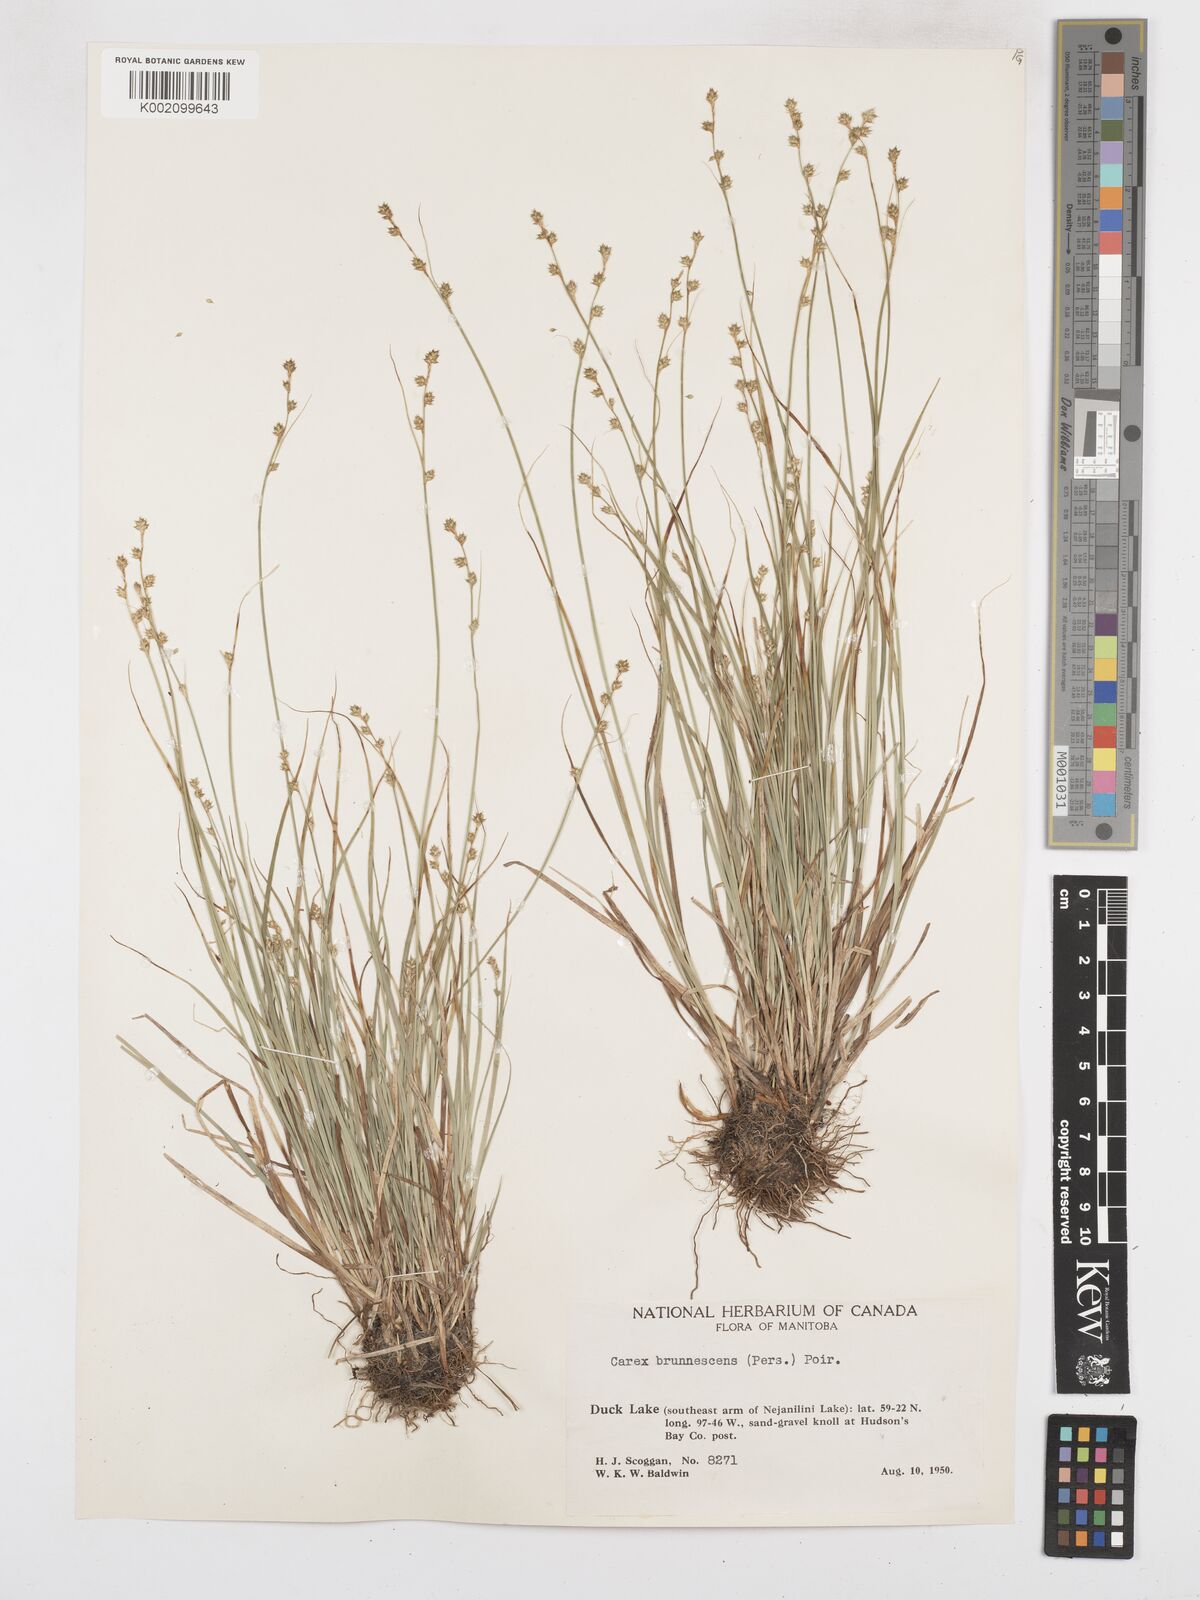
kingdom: Plantae
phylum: Tracheophyta
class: Liliopsida
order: Poales
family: Cyperaceae
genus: Carex
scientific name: Carex brunnescens
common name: Brown sedge
